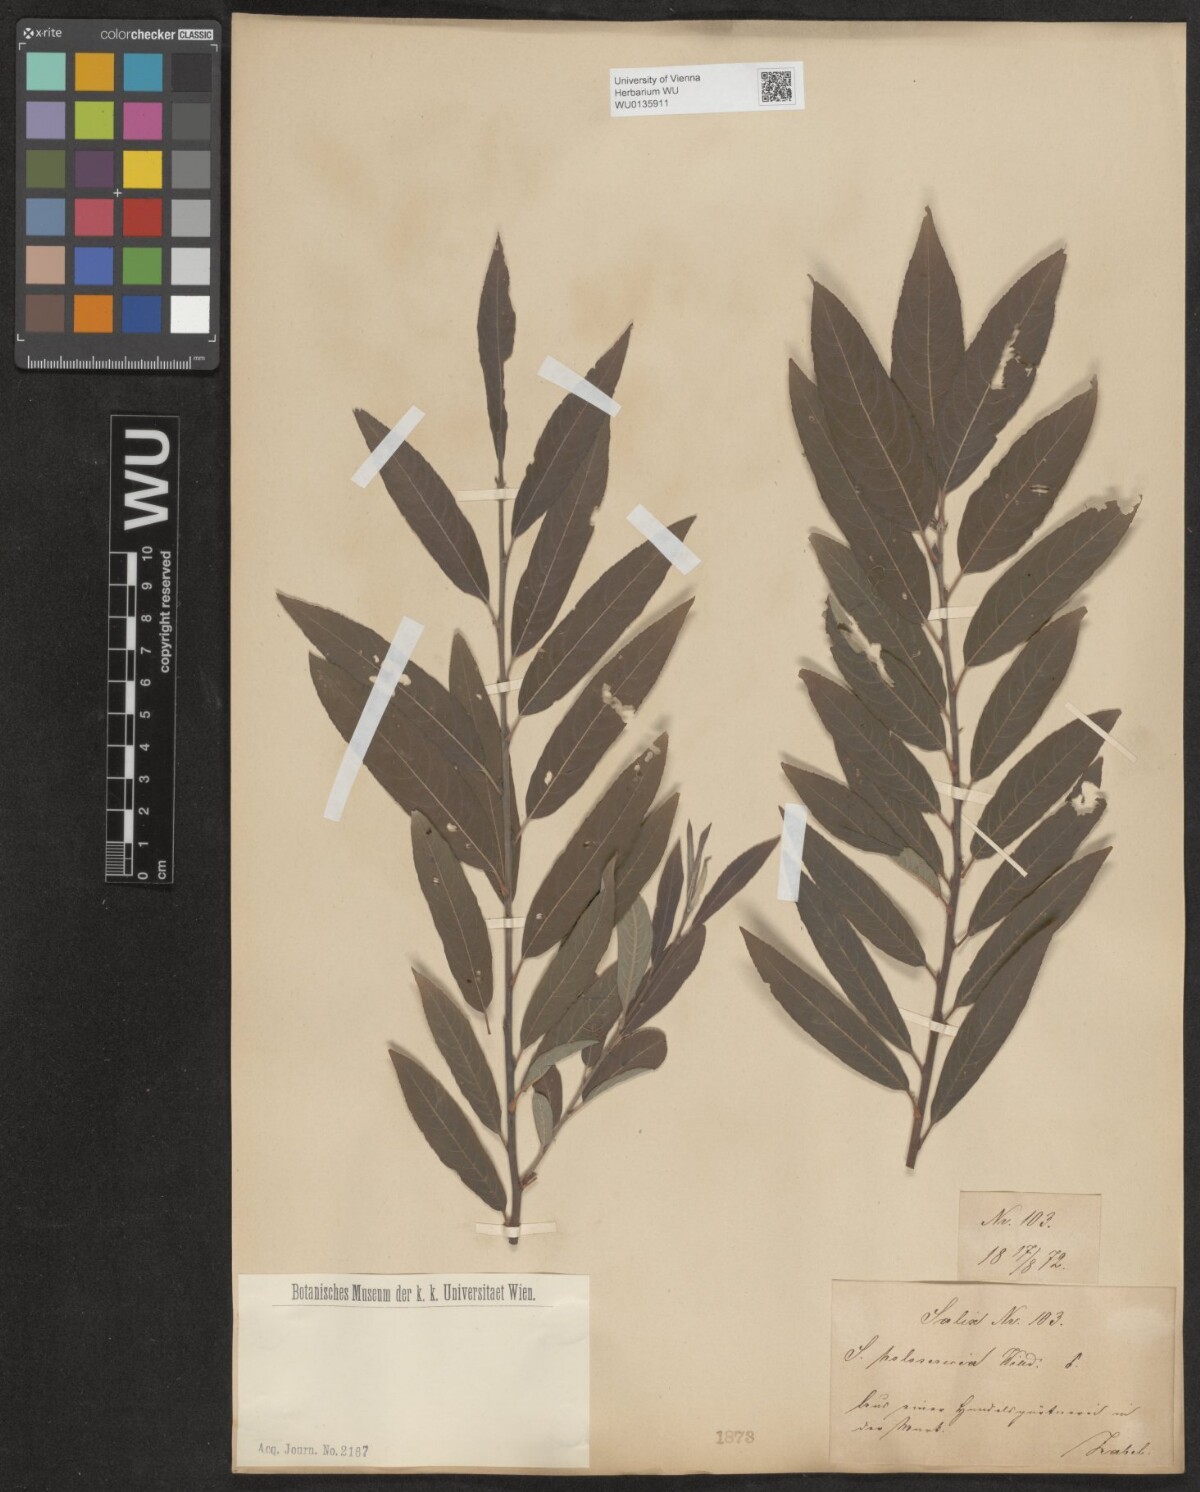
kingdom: Plantae
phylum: Tracheophyta
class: Magnoliopsida
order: Malpighiales
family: Salicaceae
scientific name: Salicaceae
